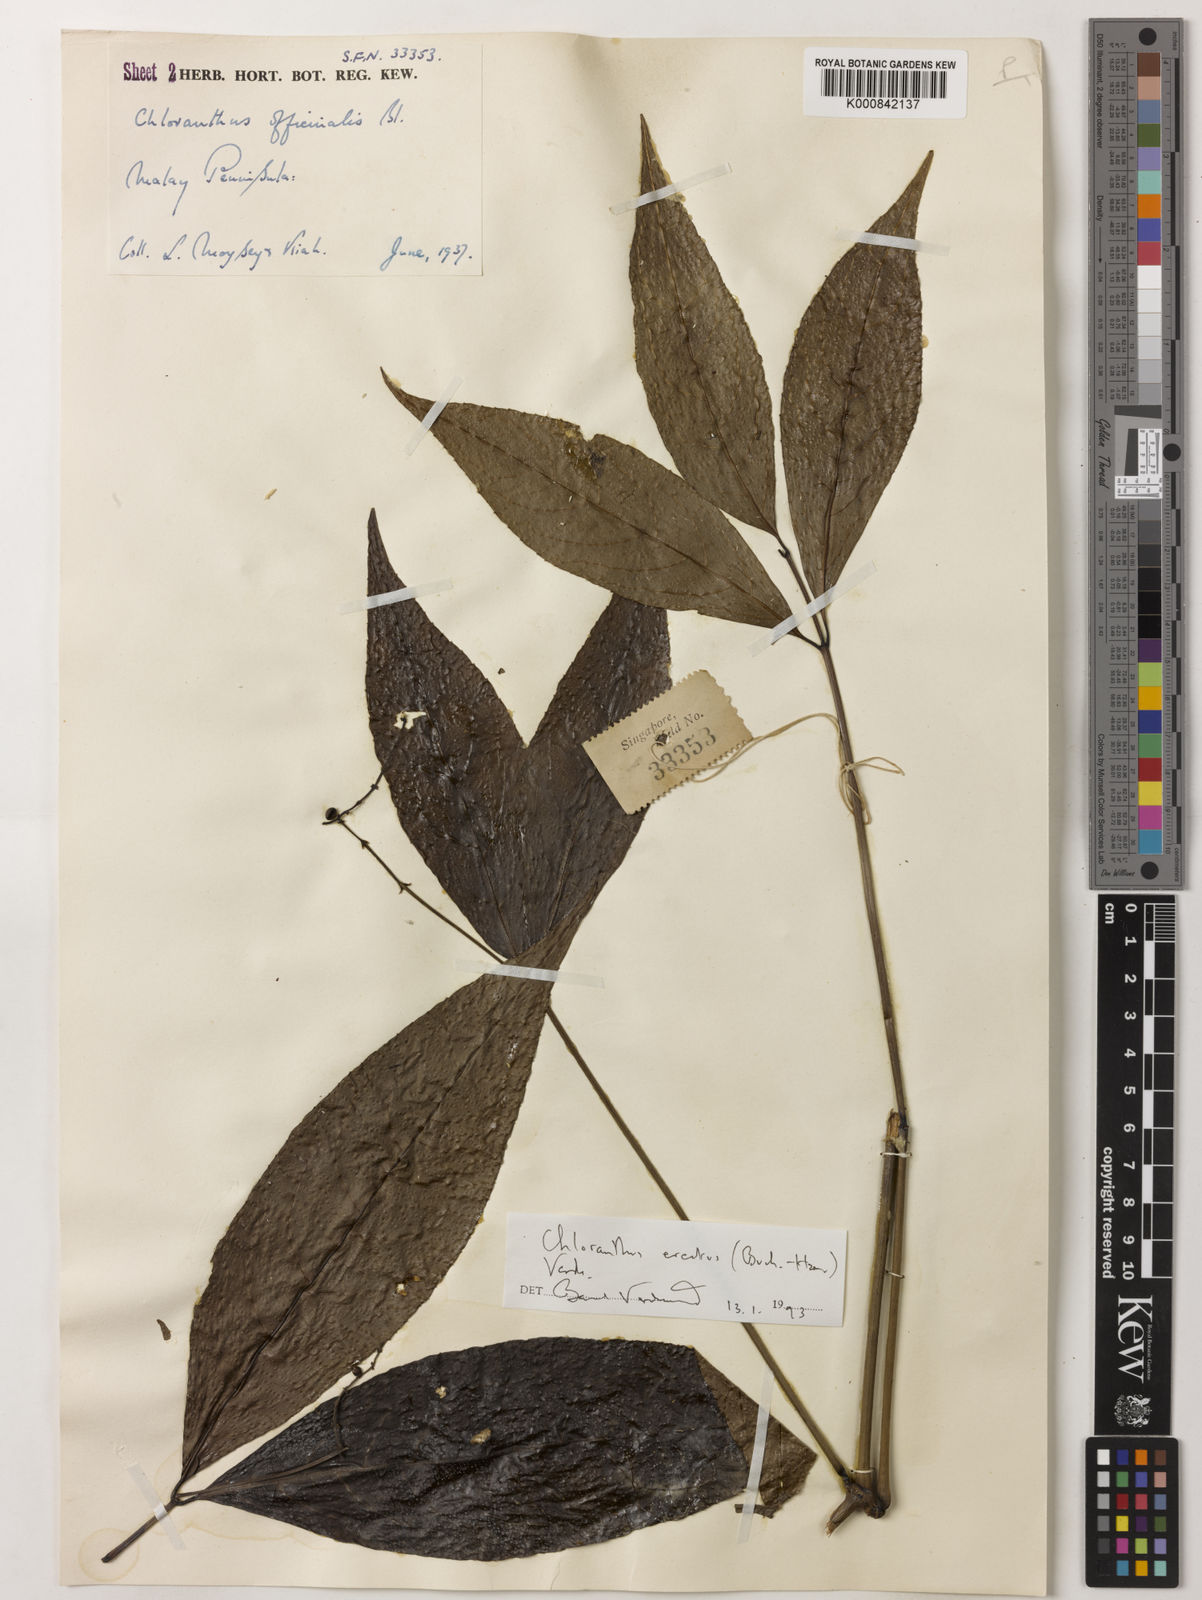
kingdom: Plantae
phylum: Tracheophyta
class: Magnoliopsida
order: Chloranthales
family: Chloranthaceae
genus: Chloranthus
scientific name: Chloranthus
